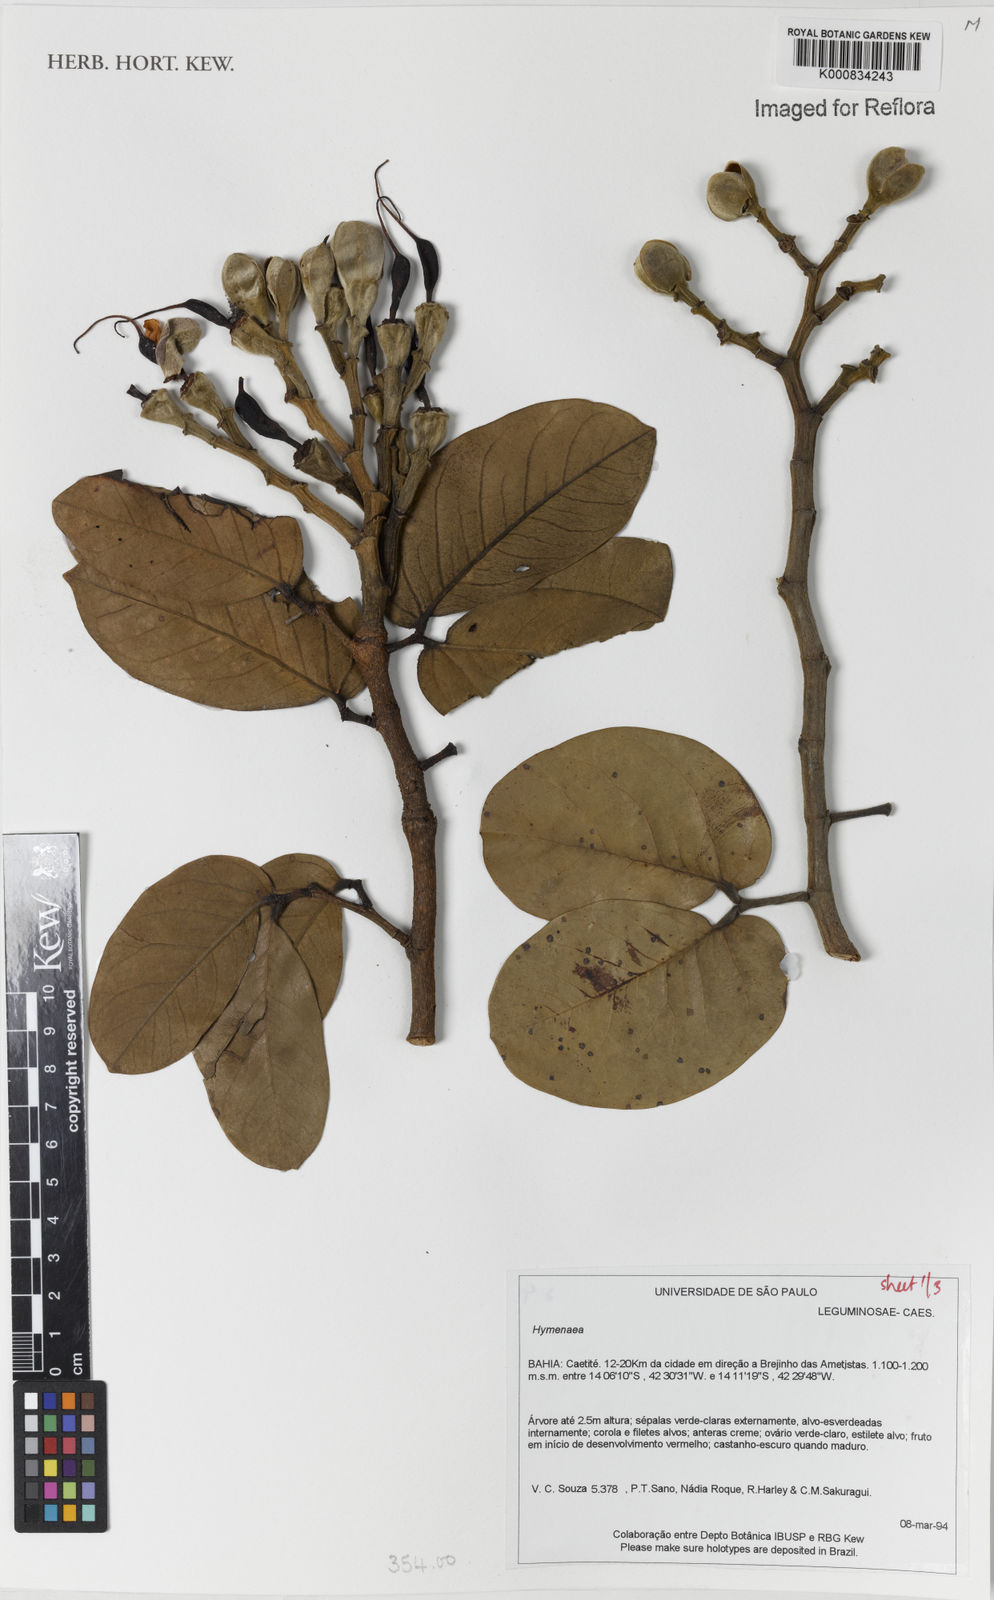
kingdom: Plantae
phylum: Tracheophyta
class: Magnoliopsida
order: Fabales
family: Fabaceae
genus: Hymenaea
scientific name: Hymenaea
